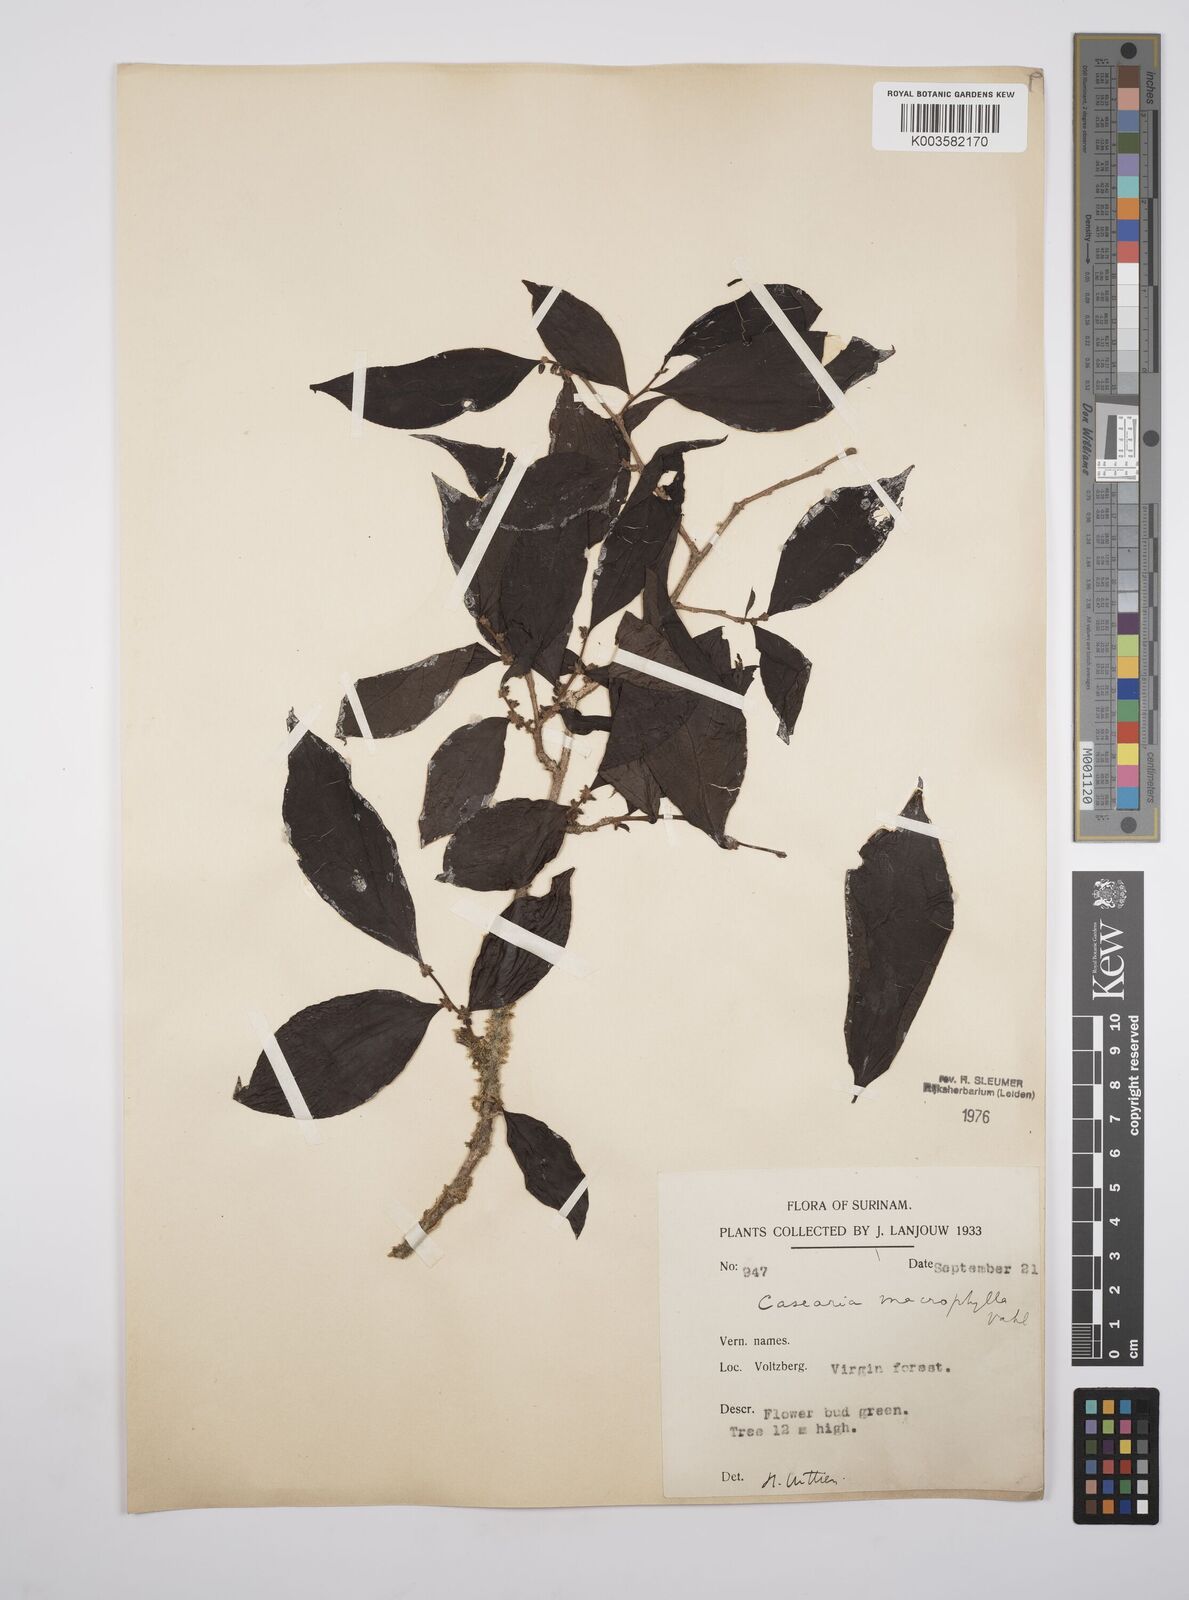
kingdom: Plantae
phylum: Tracheophyta
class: Magnoliopsida
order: Malpighiales
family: Salicaceae
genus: Casearia
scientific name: Casearia pitumba
